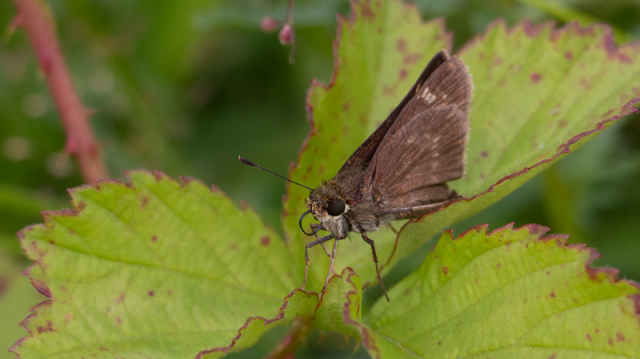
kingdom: Animalia
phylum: Arthropoda
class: Insecta
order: Lepidoptera
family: Hesperiidae
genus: Vernia
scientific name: Vernia verna
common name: Little Glassywing
